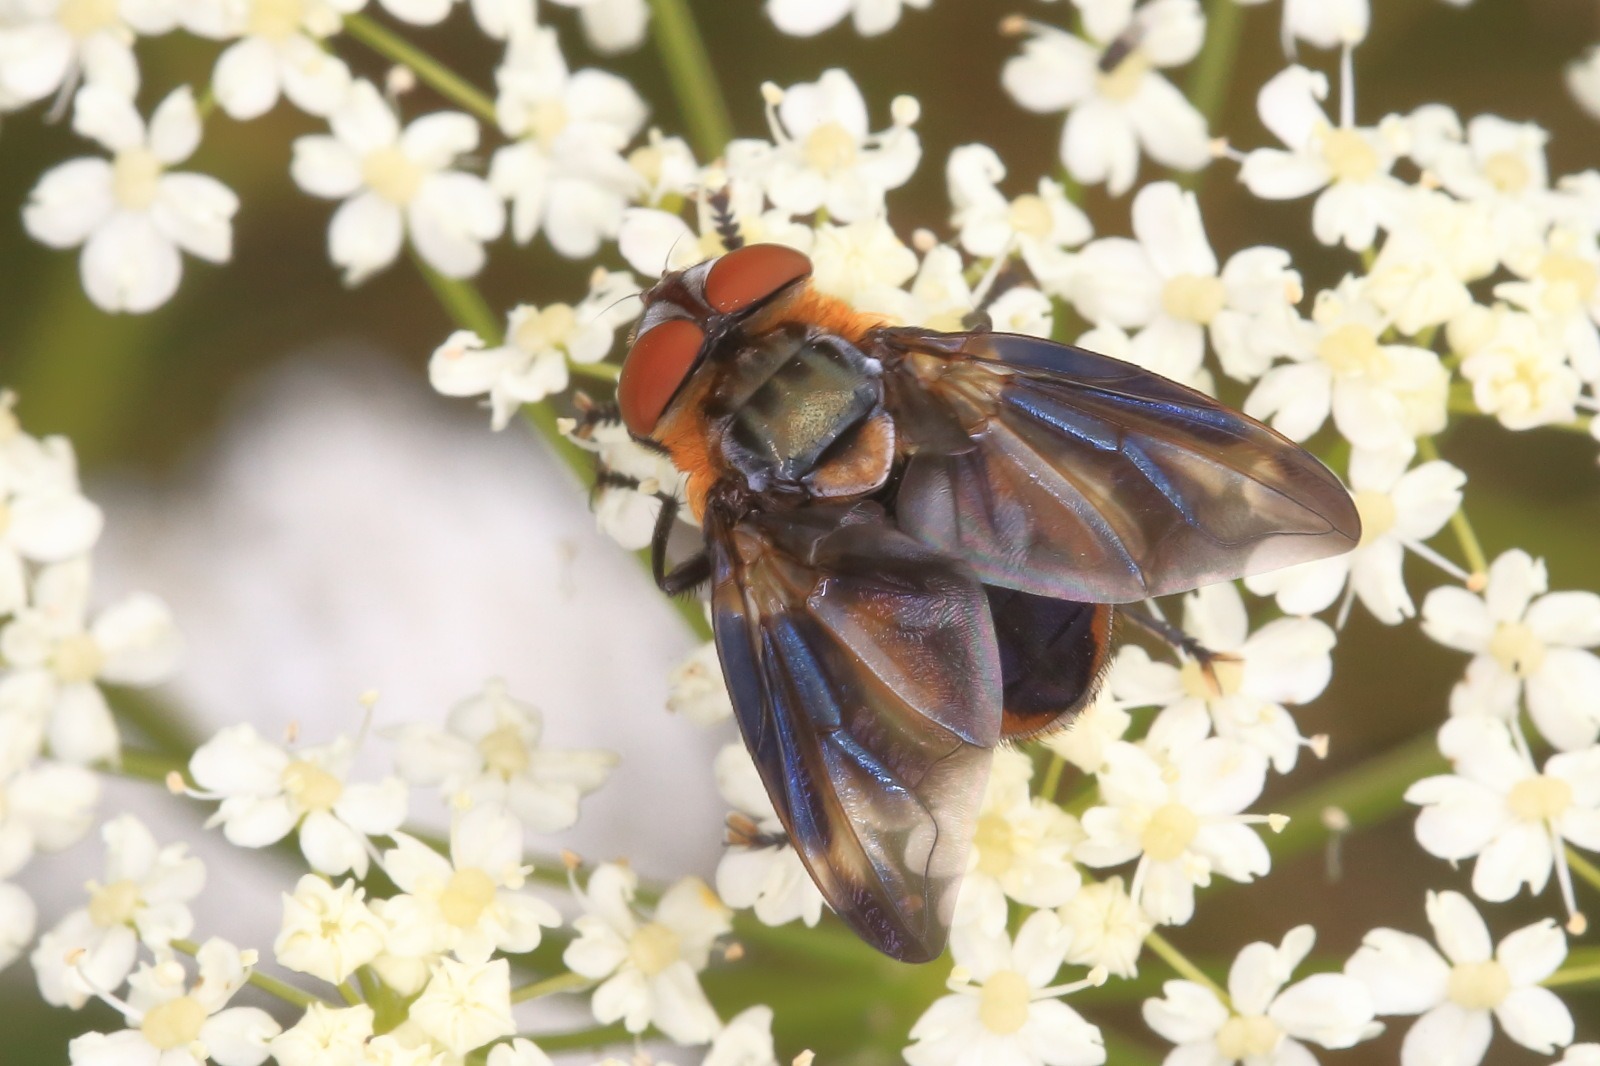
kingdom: Animalia
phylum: Arthropoda
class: Insecta
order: Diptera
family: Tachinidae
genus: Phasia
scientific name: Phasia hemiptera
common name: Blåvinget pragtsnylteflue
